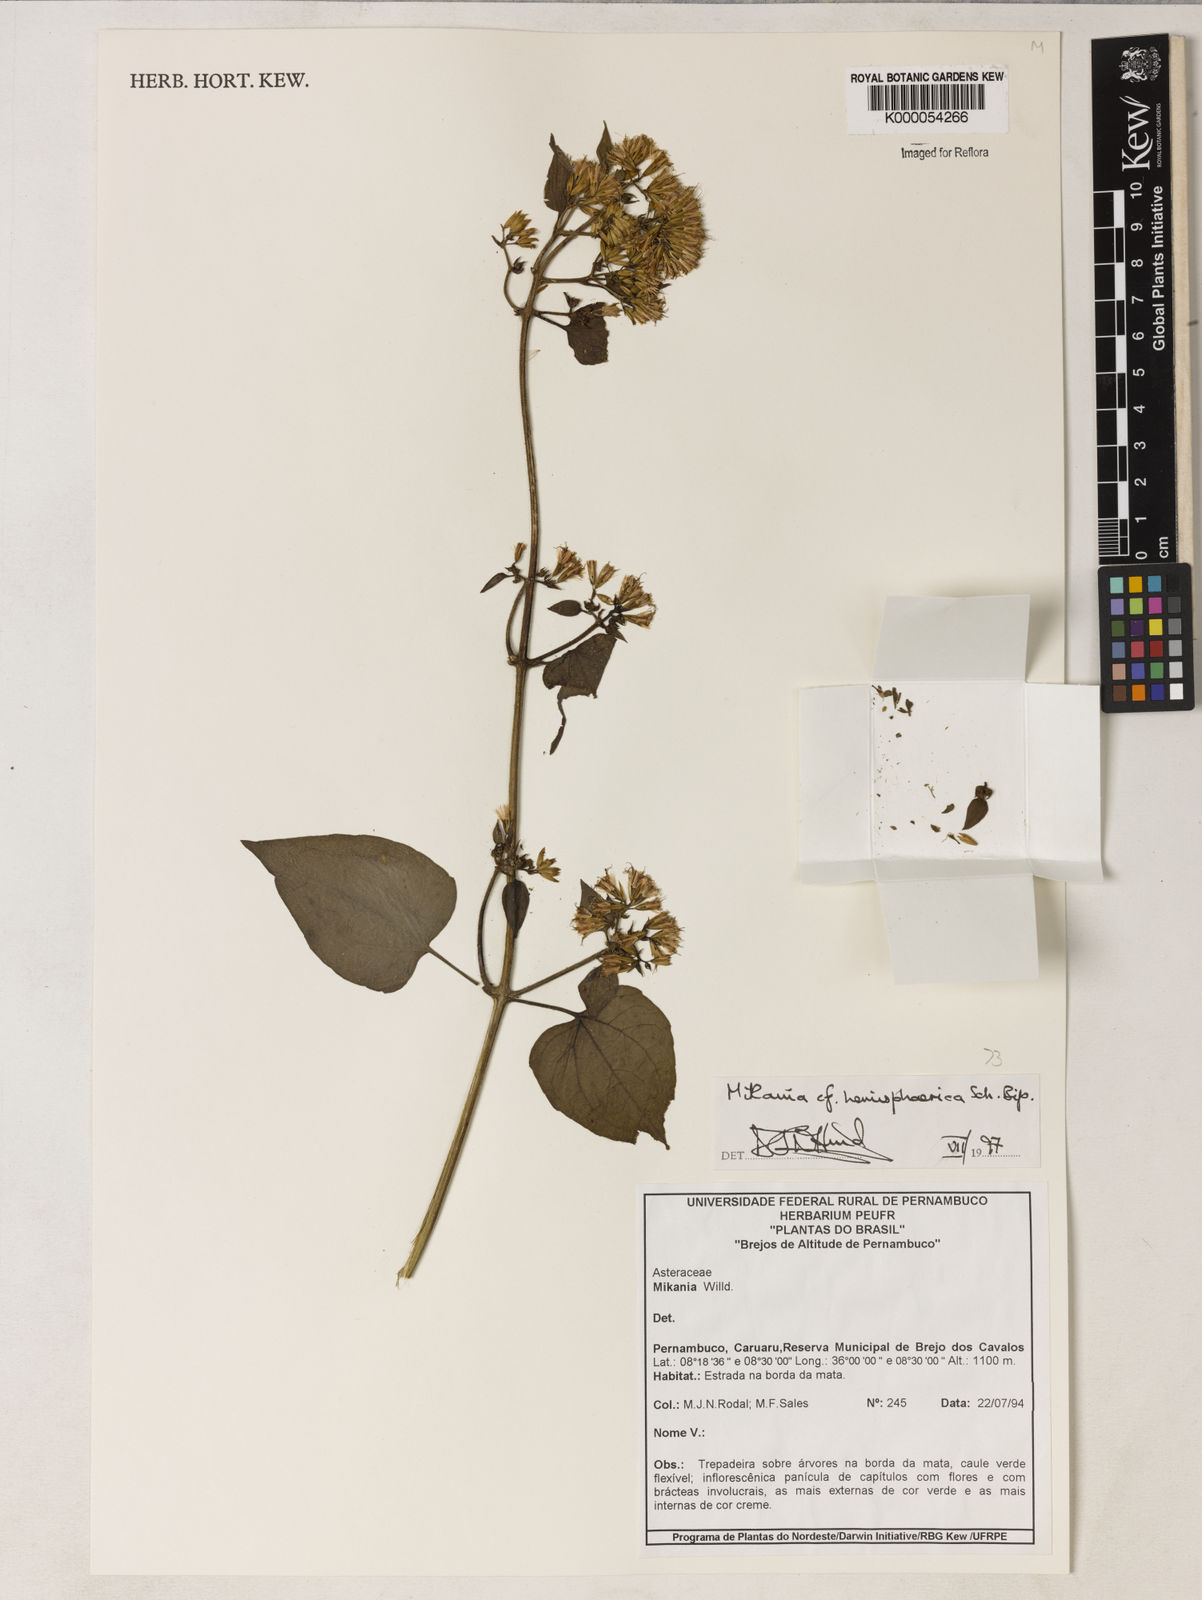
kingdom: Plantae
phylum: Tracheophyta
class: Magnoliopsida
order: Asterales
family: Asteraceae
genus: Mikania
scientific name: Mikania hemisphaerica
